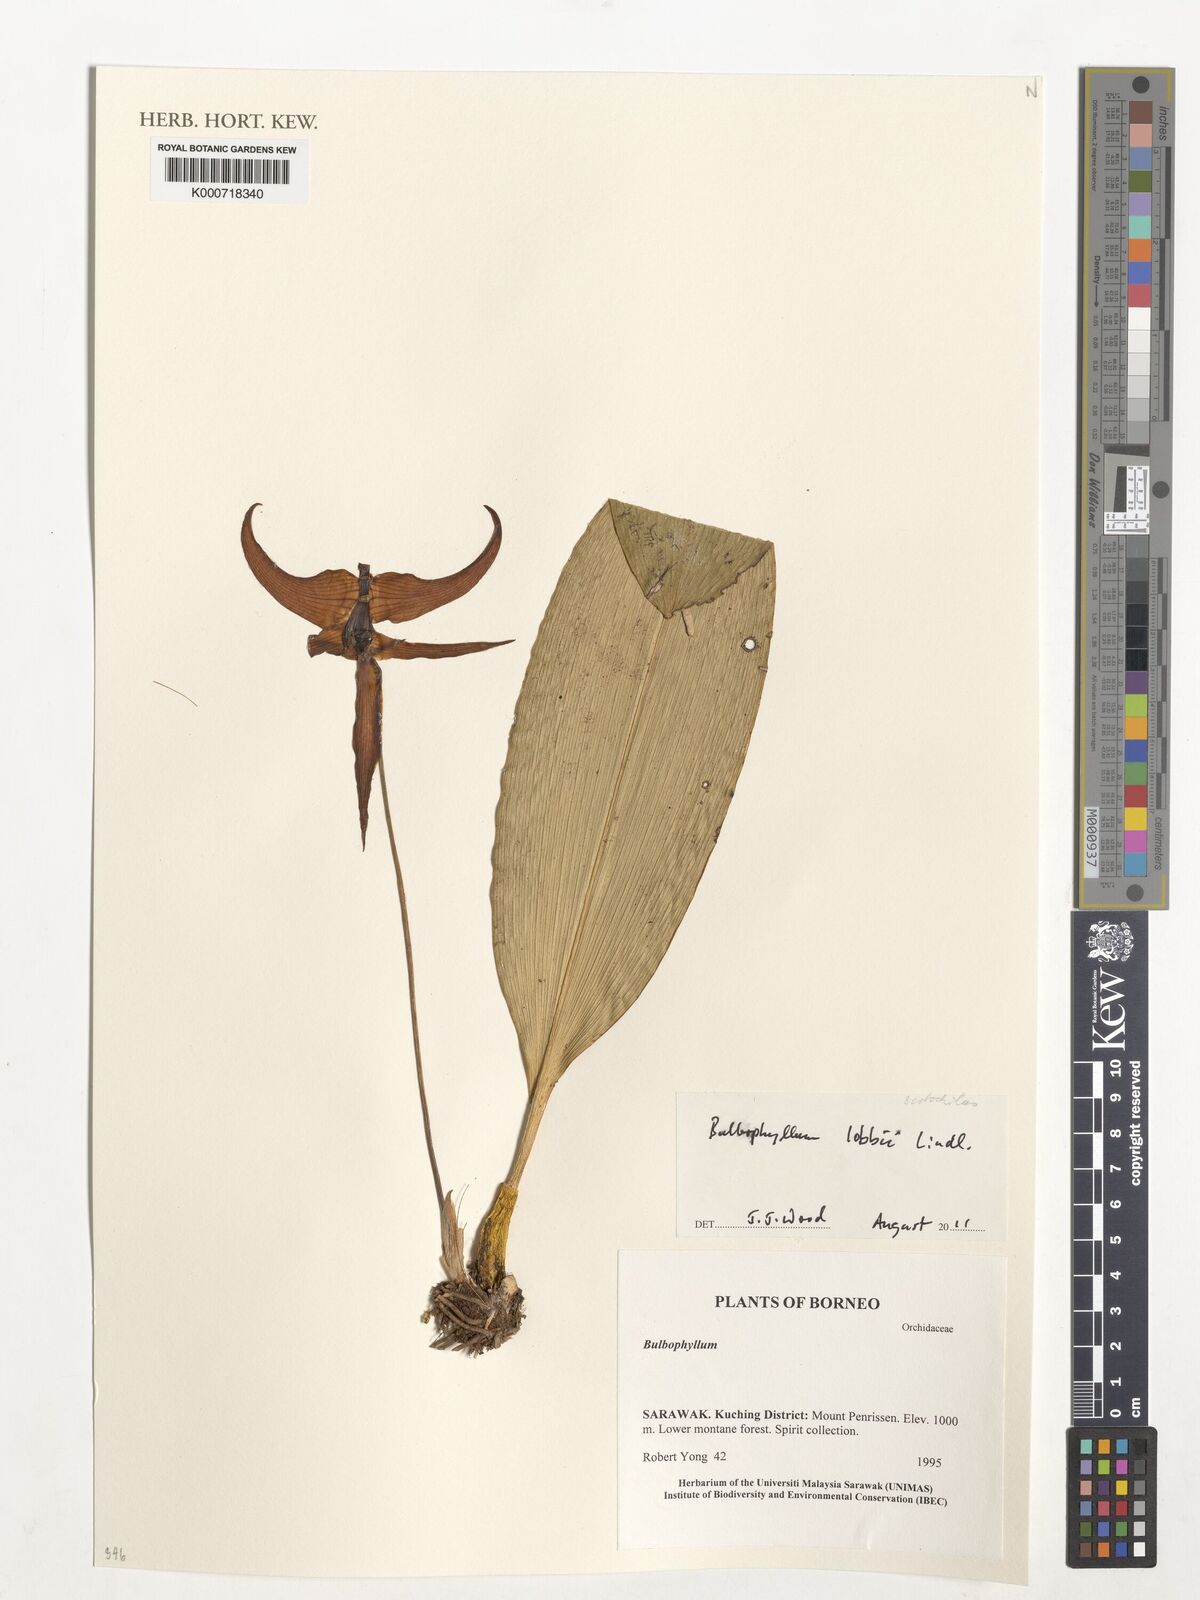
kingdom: Plantae
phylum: Tracheophyta
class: Liliopsida
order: Asparagales
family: Orchidaceae
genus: Bulbophyllum
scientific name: Bulbophyllum lobbii
